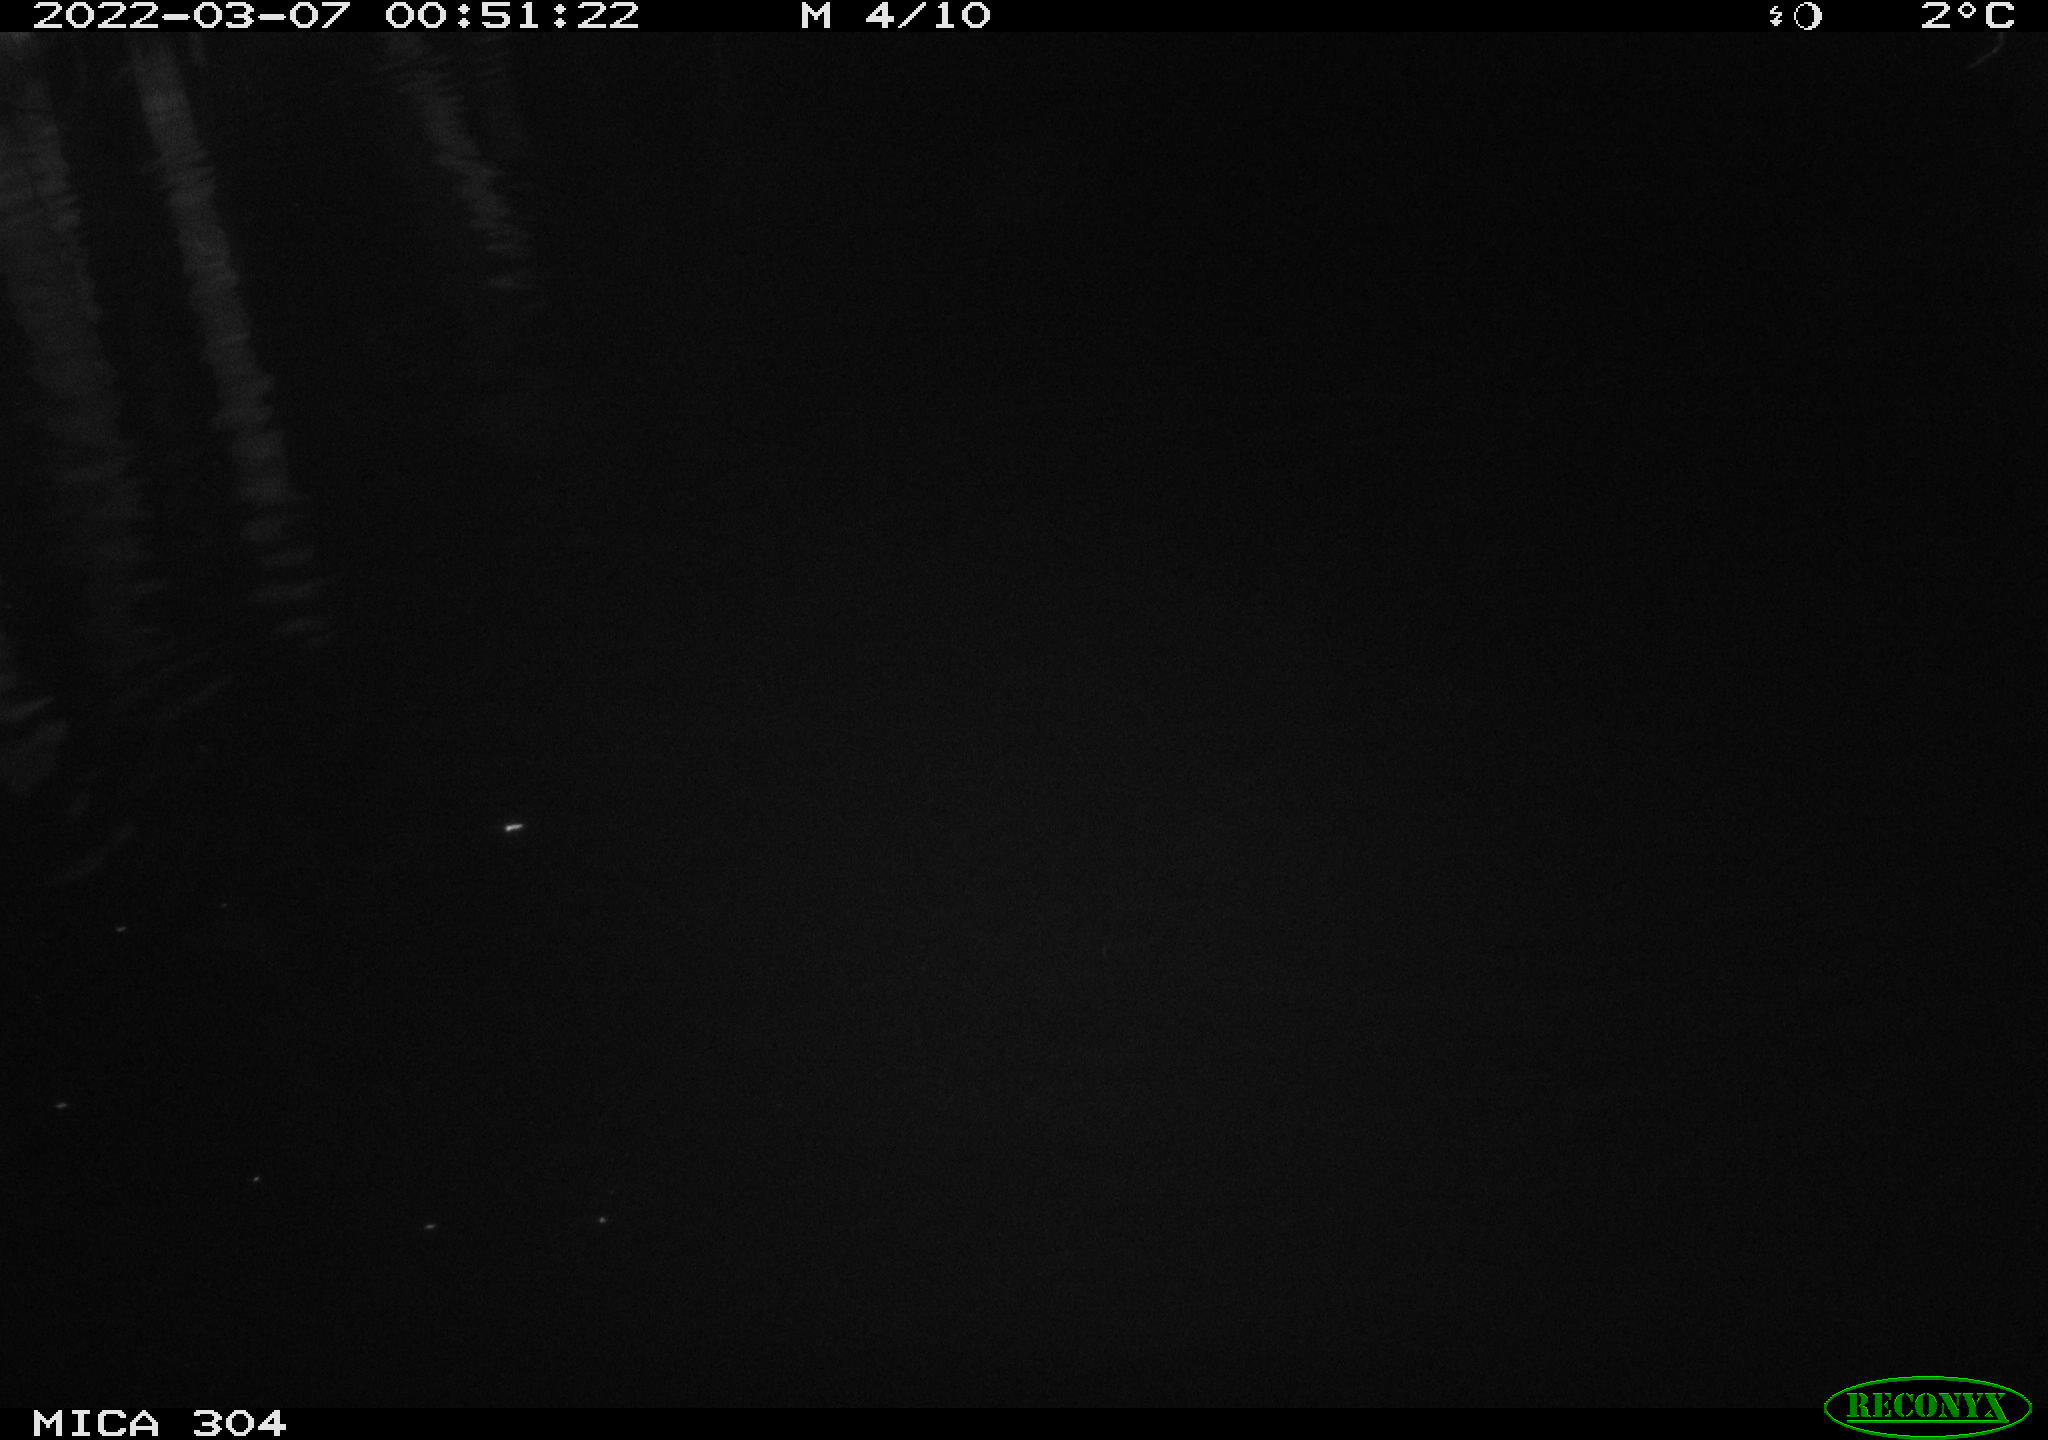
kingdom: Animalia
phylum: Chordata
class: Mammalia
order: Rodentia
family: Muridae
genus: Rattus
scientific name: Rattus norvegicus
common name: Brown rat
